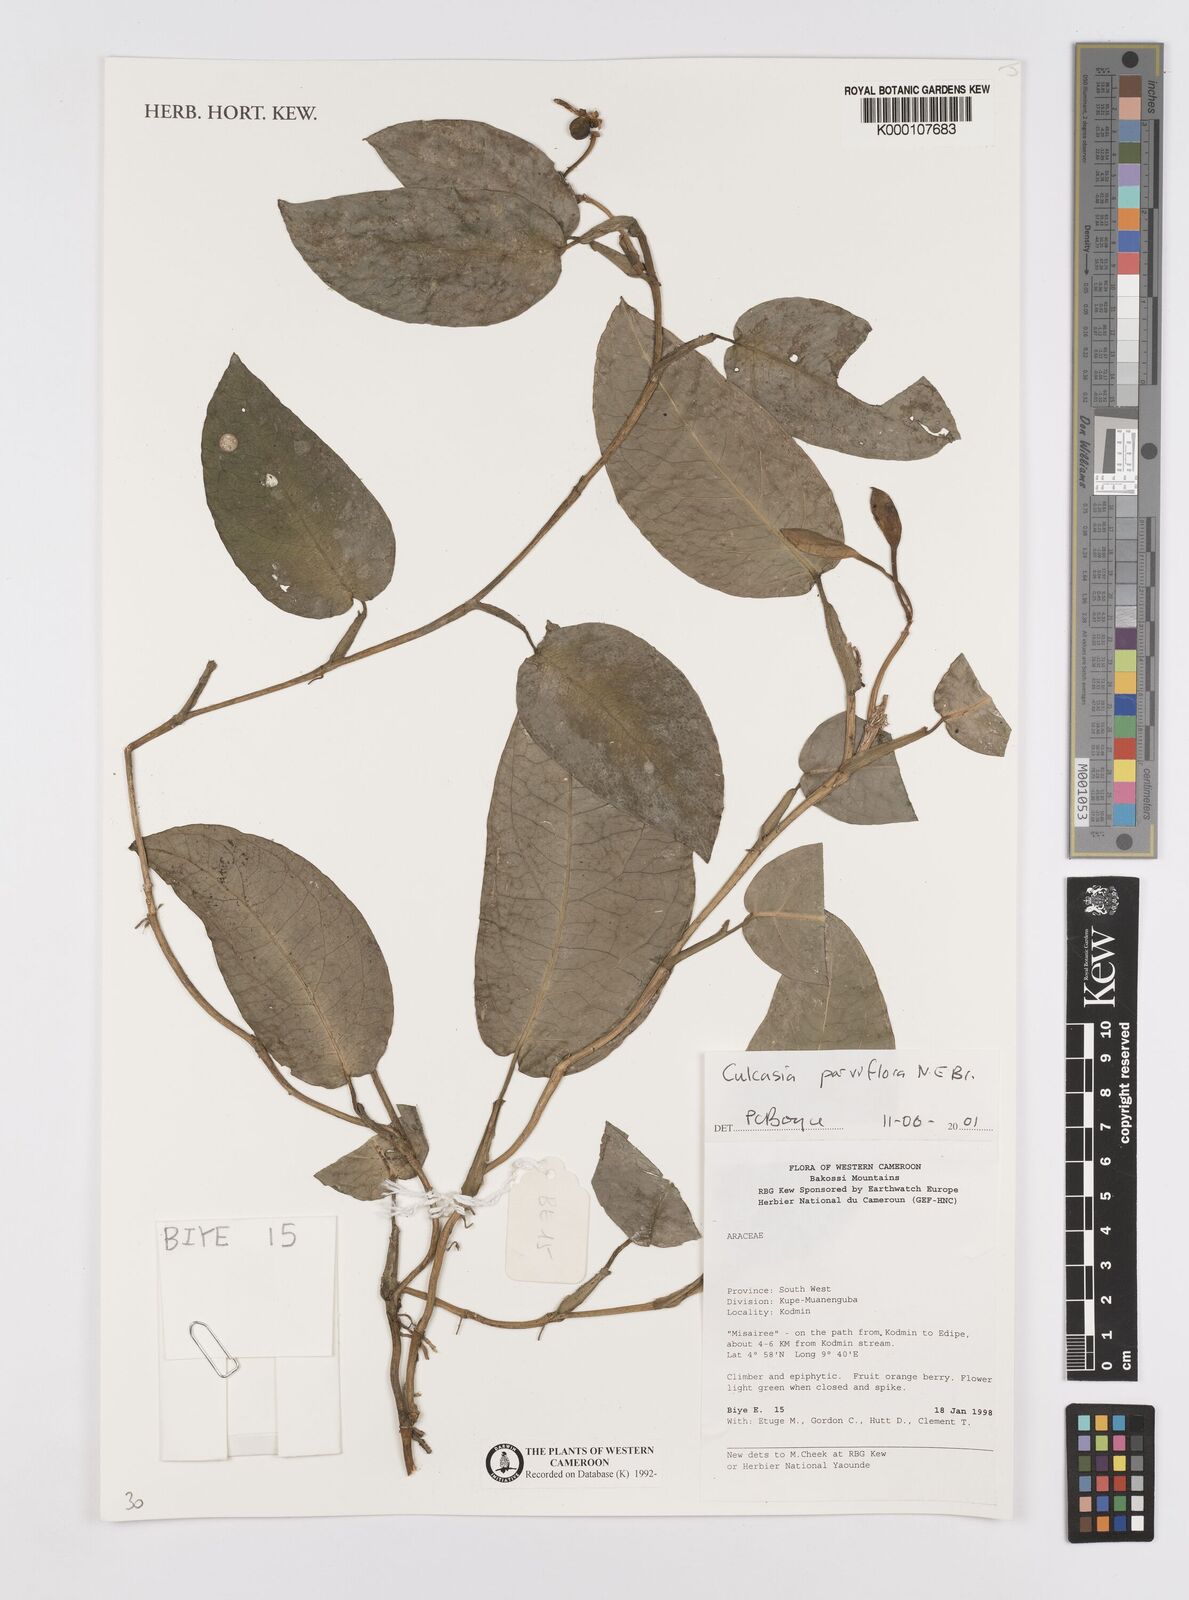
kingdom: Plantae
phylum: Tracheophyta
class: Liliopsida
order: Alismatales
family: Araceae
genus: Culcasia
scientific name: Culcasia parviflora
